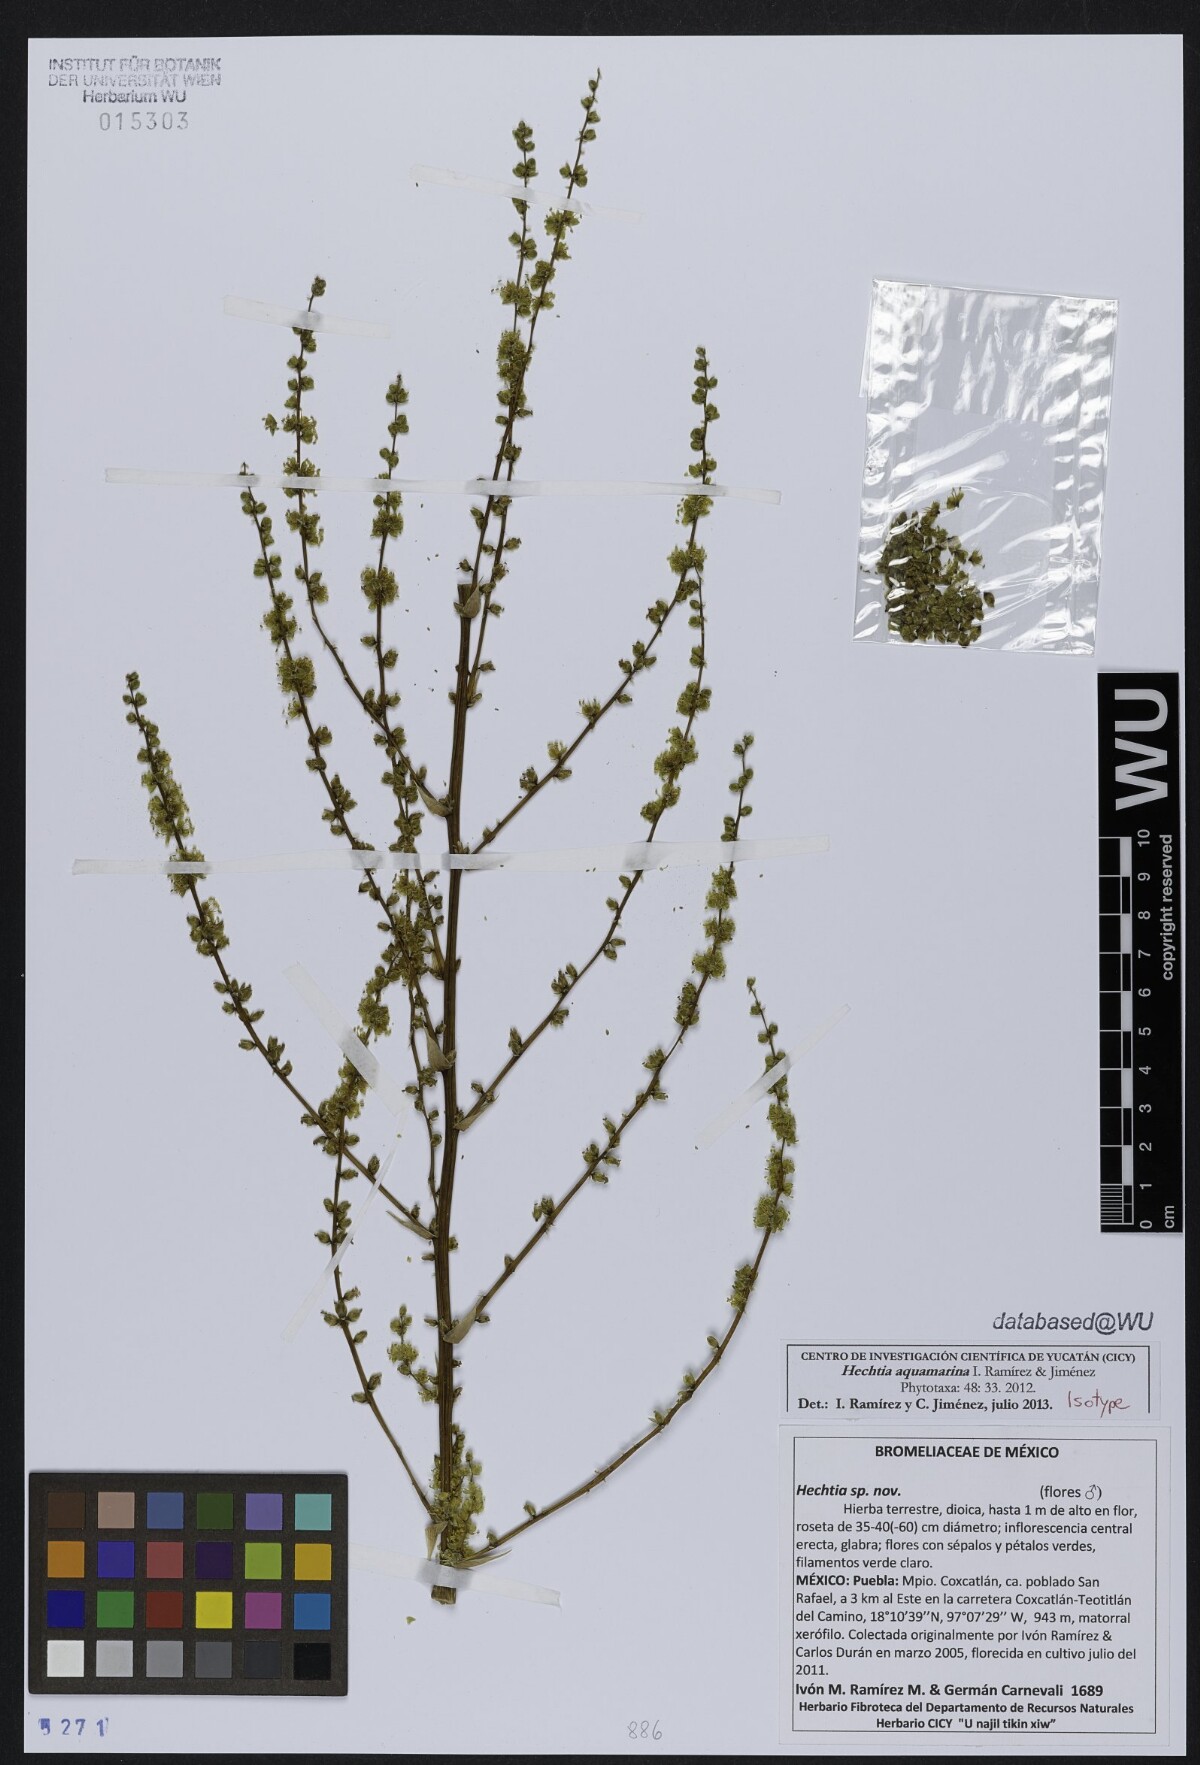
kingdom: Plantae
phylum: Tracheophyta
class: Liliopsida
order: Poales
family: Bromeliaceae
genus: Hechtia
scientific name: Hechtia aquamarina
